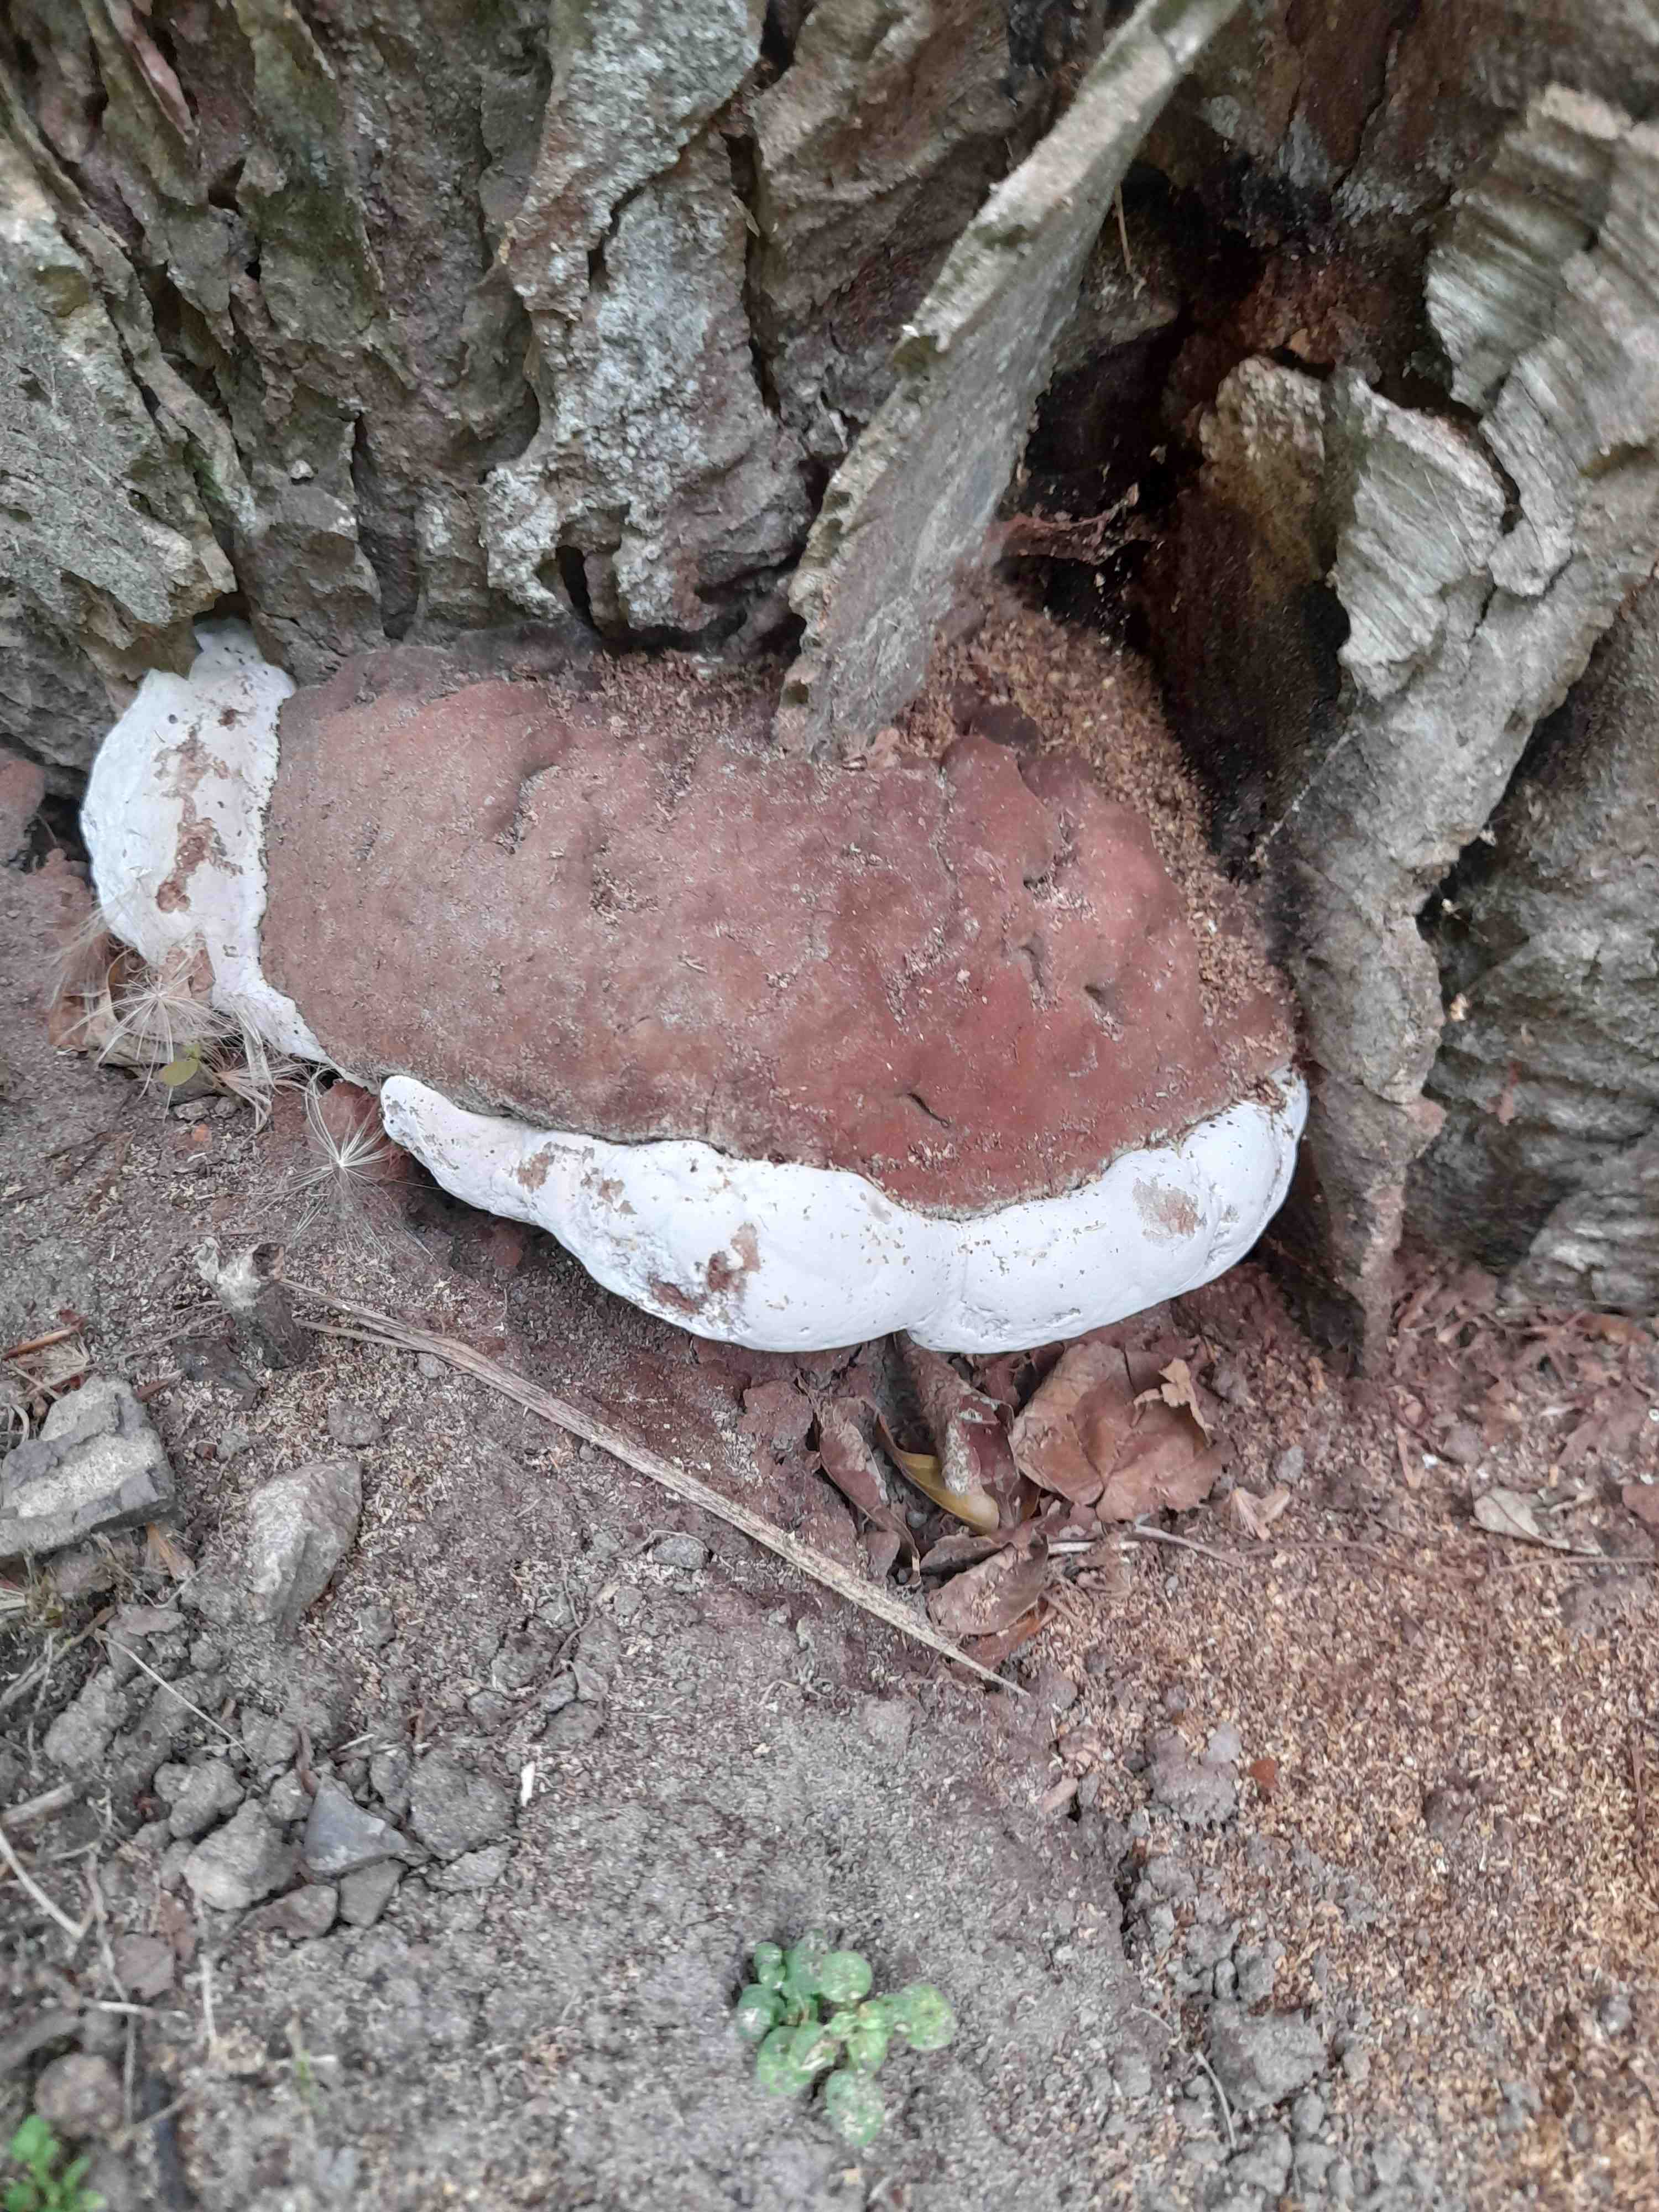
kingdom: Fungi
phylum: Basidiomycota
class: Agaricomycetes
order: Polyporales
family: Polyporaceae
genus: Ganoderma
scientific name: Ganoderma adspersum
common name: grov lakporesvamp
